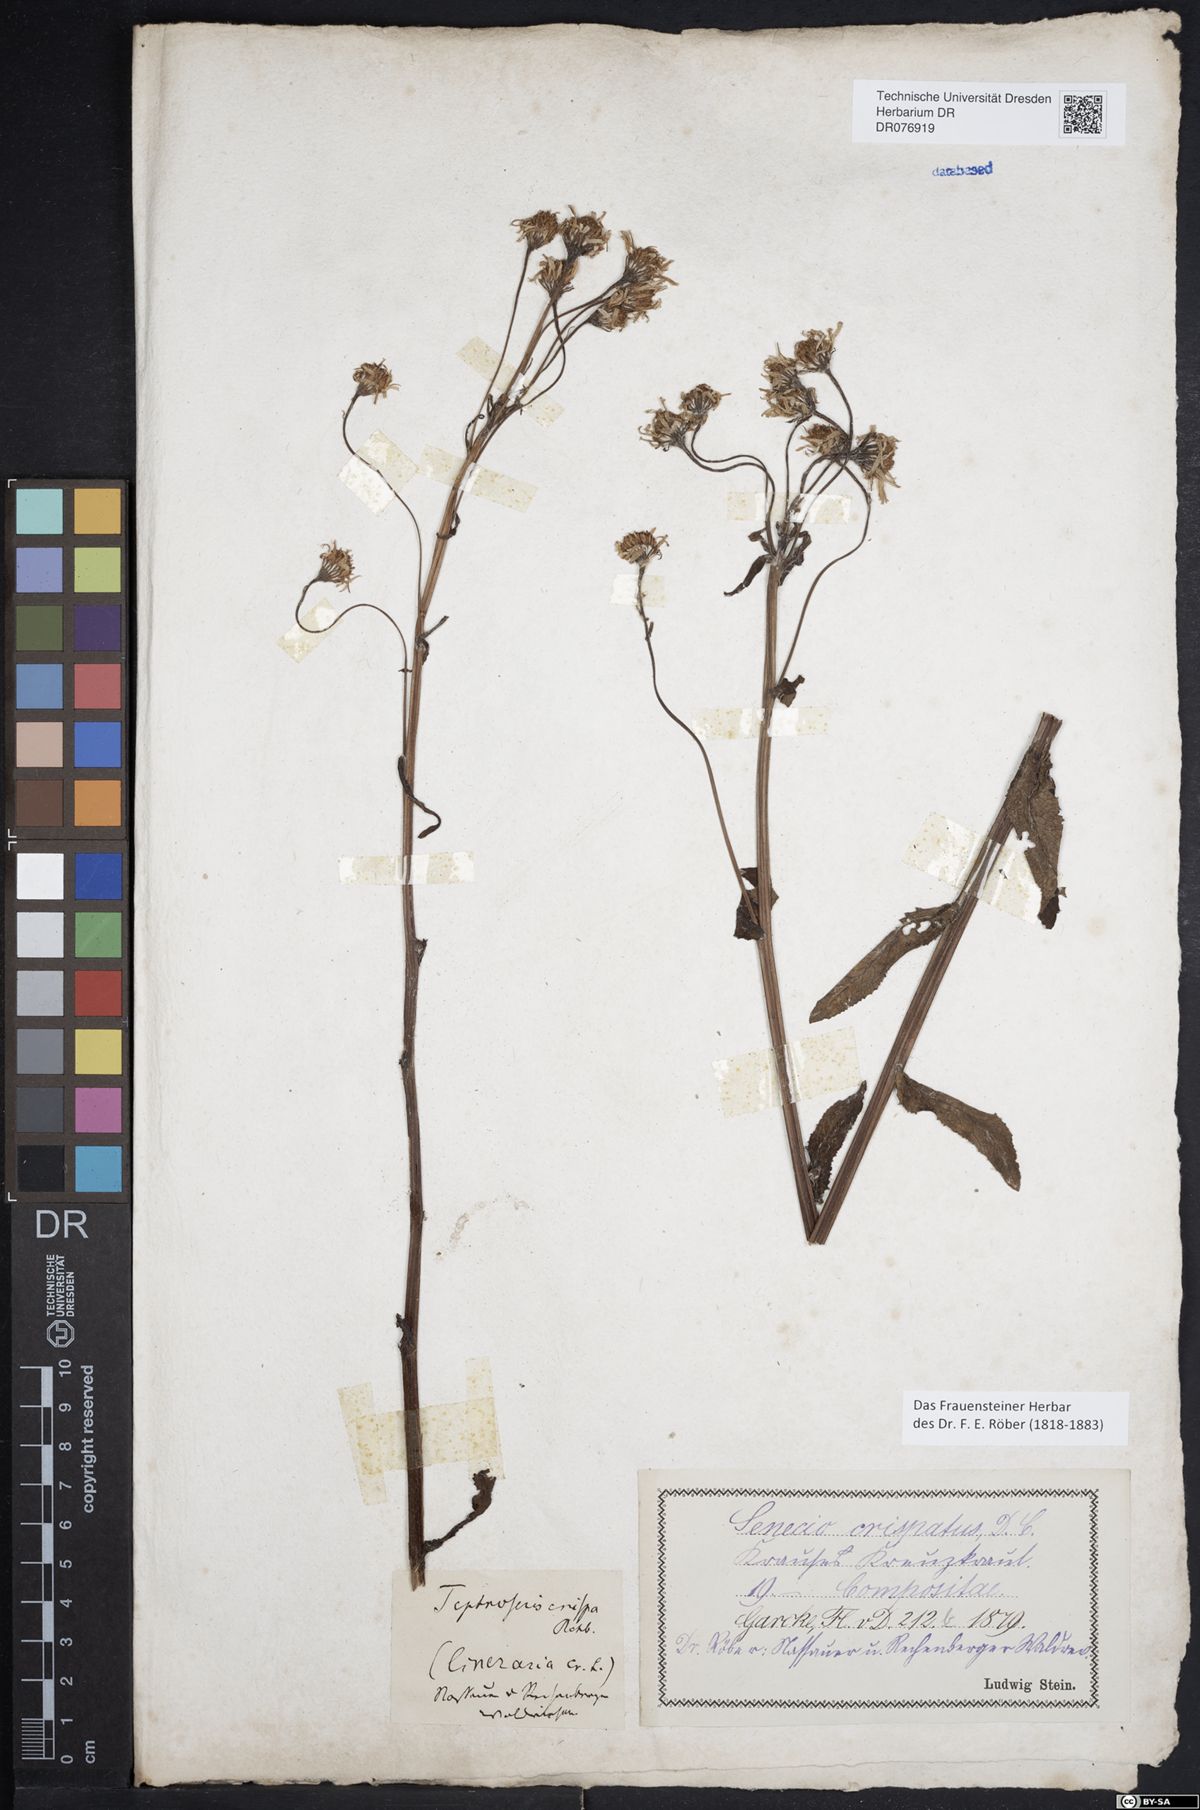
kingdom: Plantae
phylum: Tracheophyta
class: Magnoliopsida
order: Asterales
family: Asteraceae
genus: Tephroseris
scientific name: Tephroseris crispa
